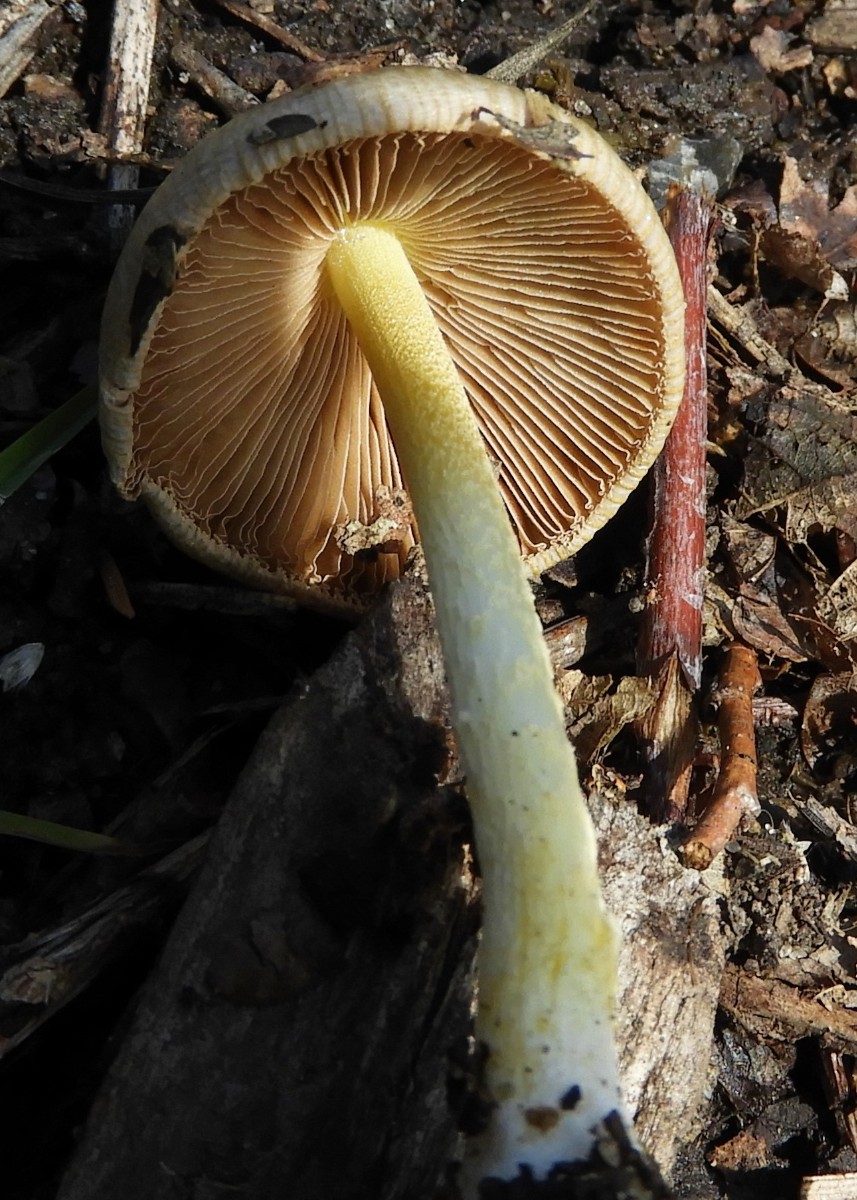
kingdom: Fungi
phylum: Basidiomycota
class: Agaricomycetes
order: Agaricales
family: Bolbitiaceae
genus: Bolbitius
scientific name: Bolbitius titubans
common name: almindelig gulhat
